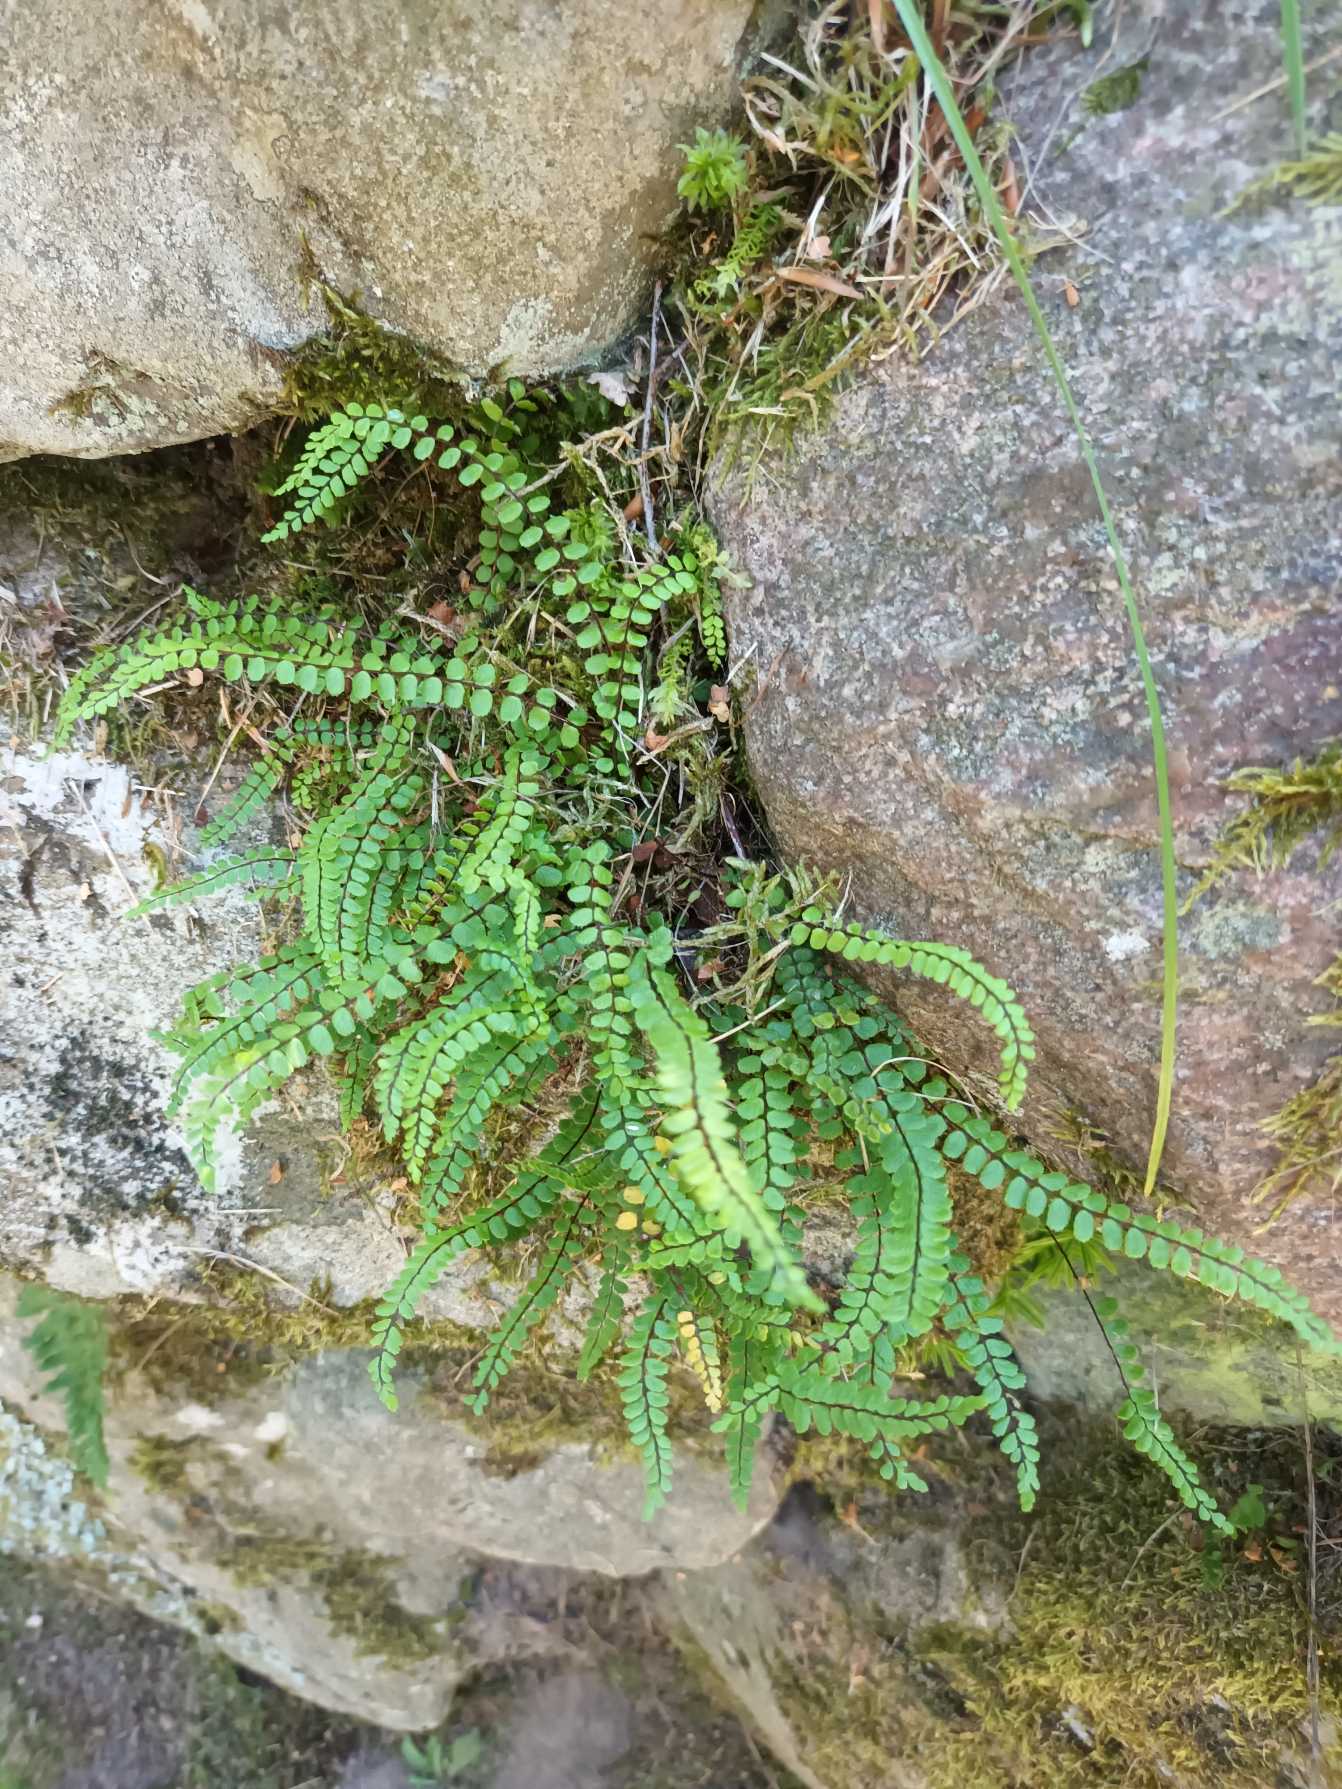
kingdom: Plantae
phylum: Tracheophyta
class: Polypodiopsida
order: Polypodiales
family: Aspleniaceae
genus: Asplenium
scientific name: Asplenium trichomanes
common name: Rundfinnet radeløv
